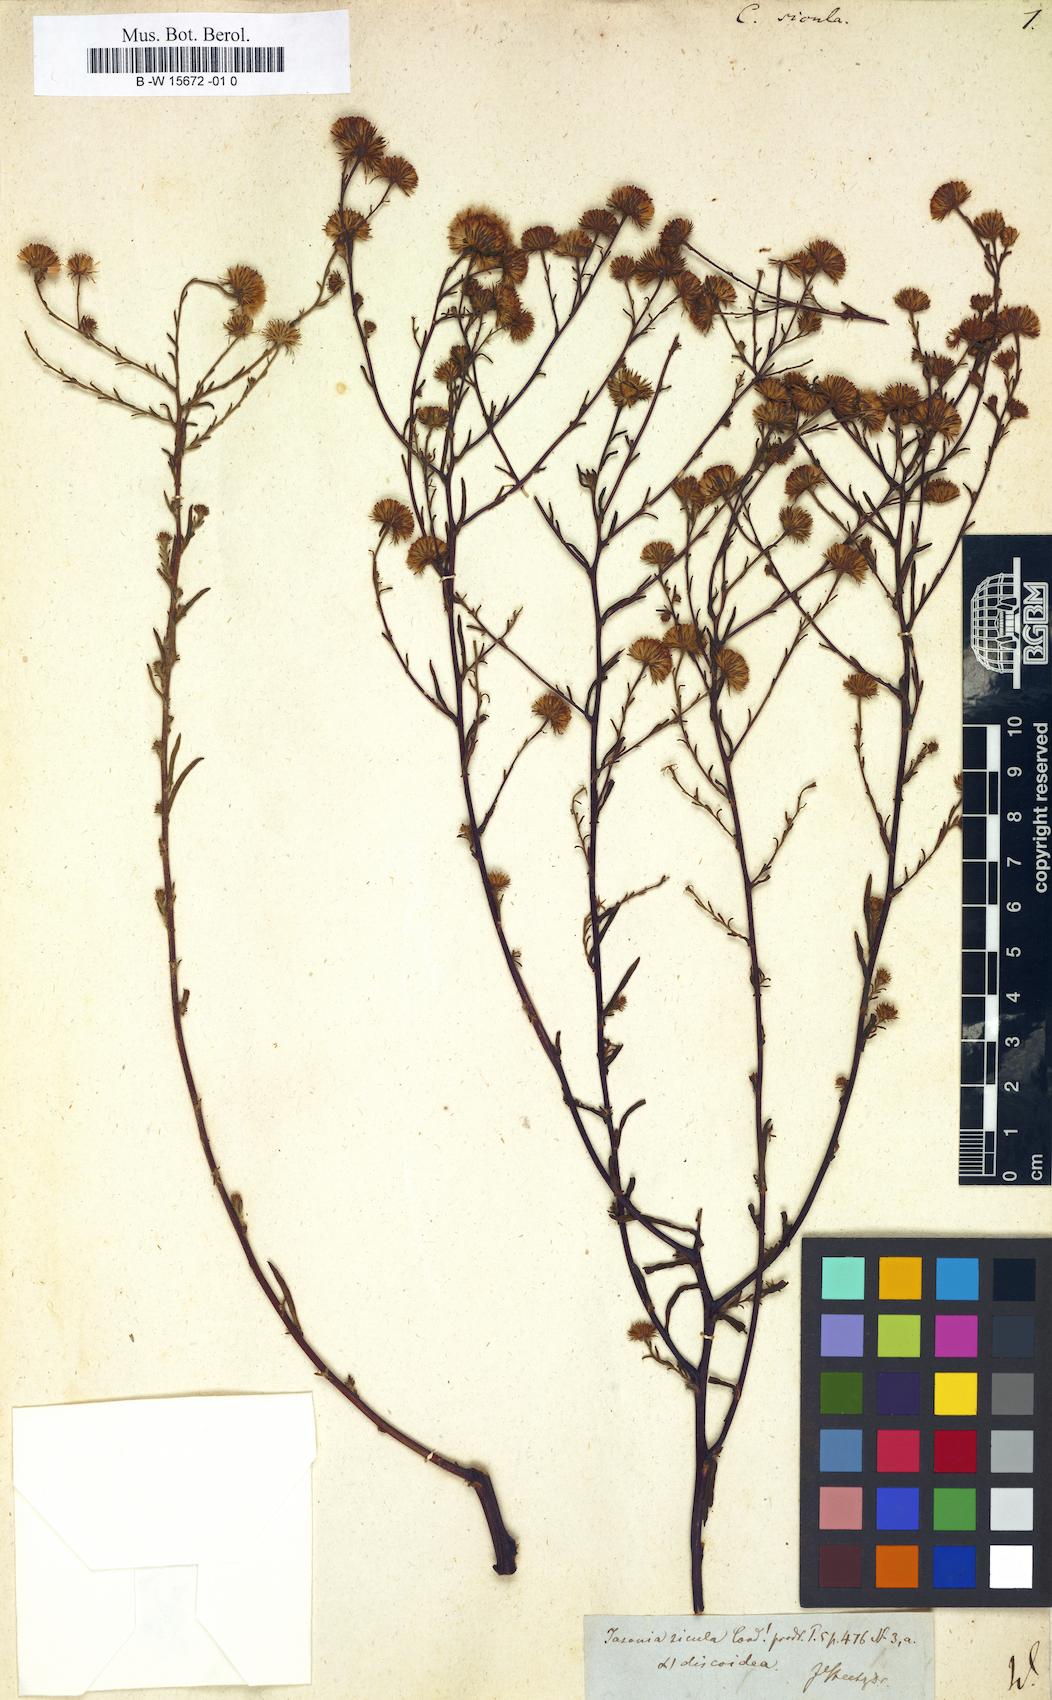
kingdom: Plantae
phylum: Tracheophyta
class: Magnoliopsida
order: Asterales
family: Asteraceae
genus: Pulicaria
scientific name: Pulicaria sicula
